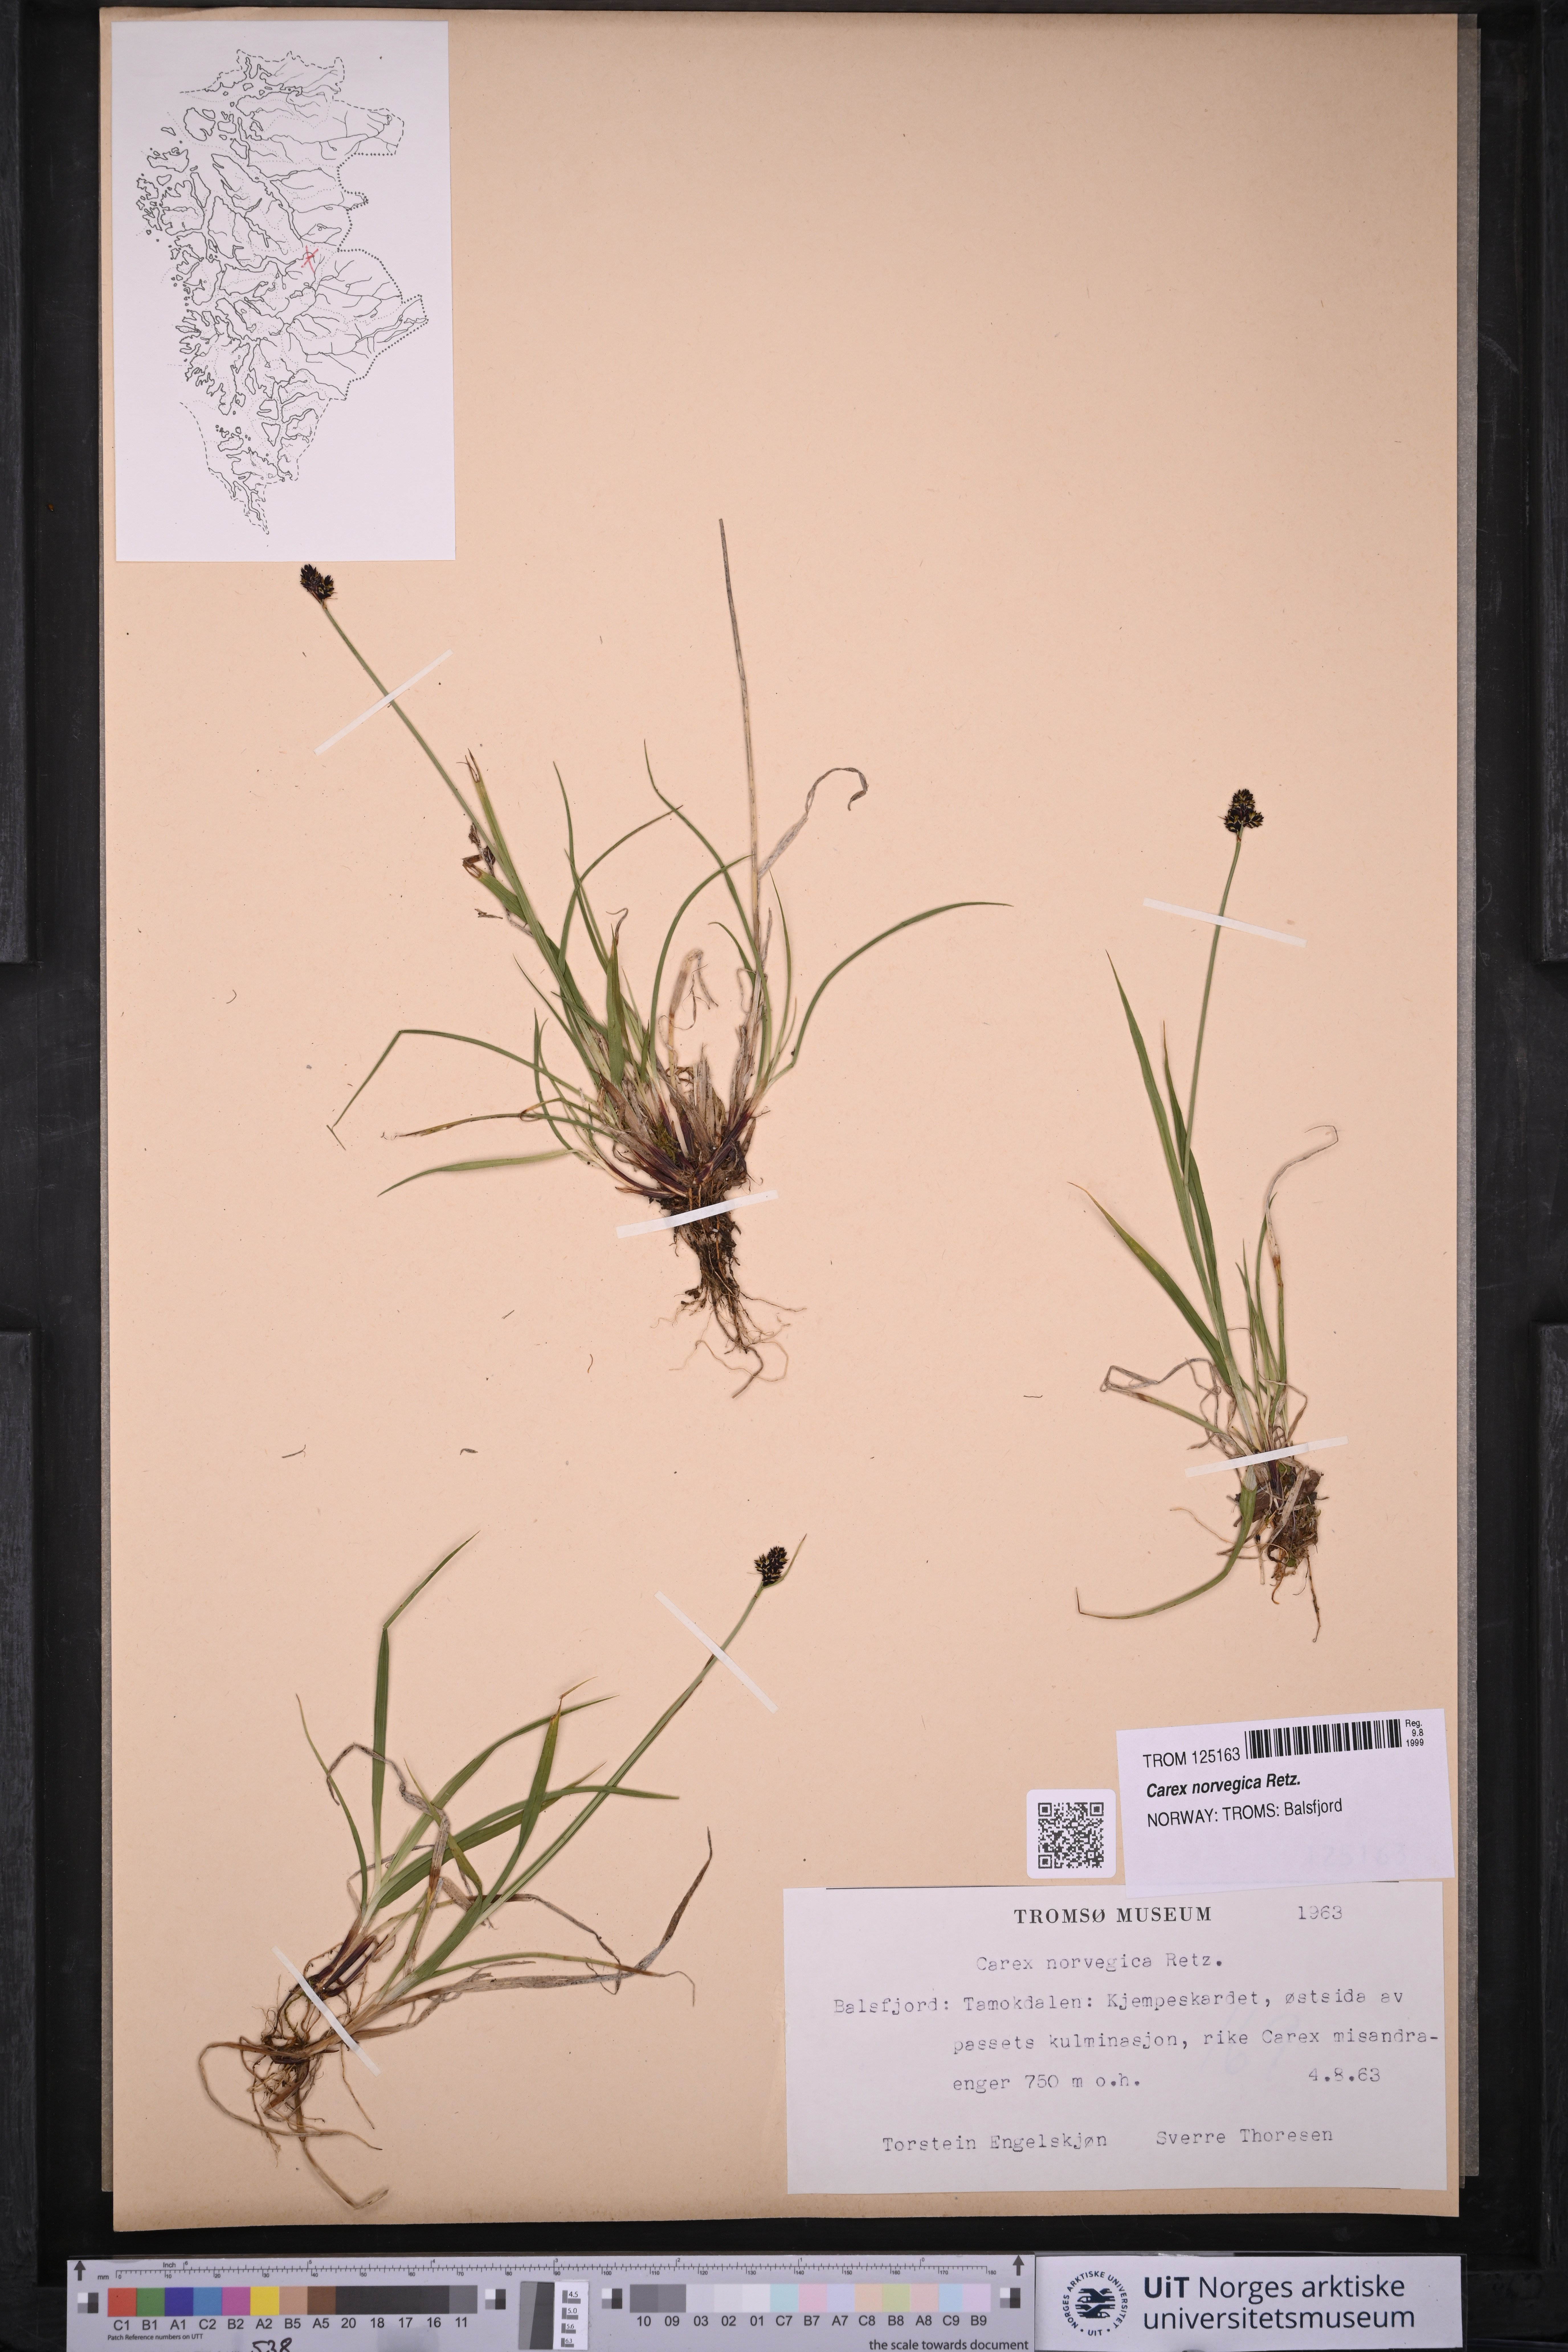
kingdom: Plantae
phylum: Tracheophyta
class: Liliopsida
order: Poales
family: Cyperaceae
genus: Carex
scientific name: Carex norvegica
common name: Close-headed alpine-sedge
